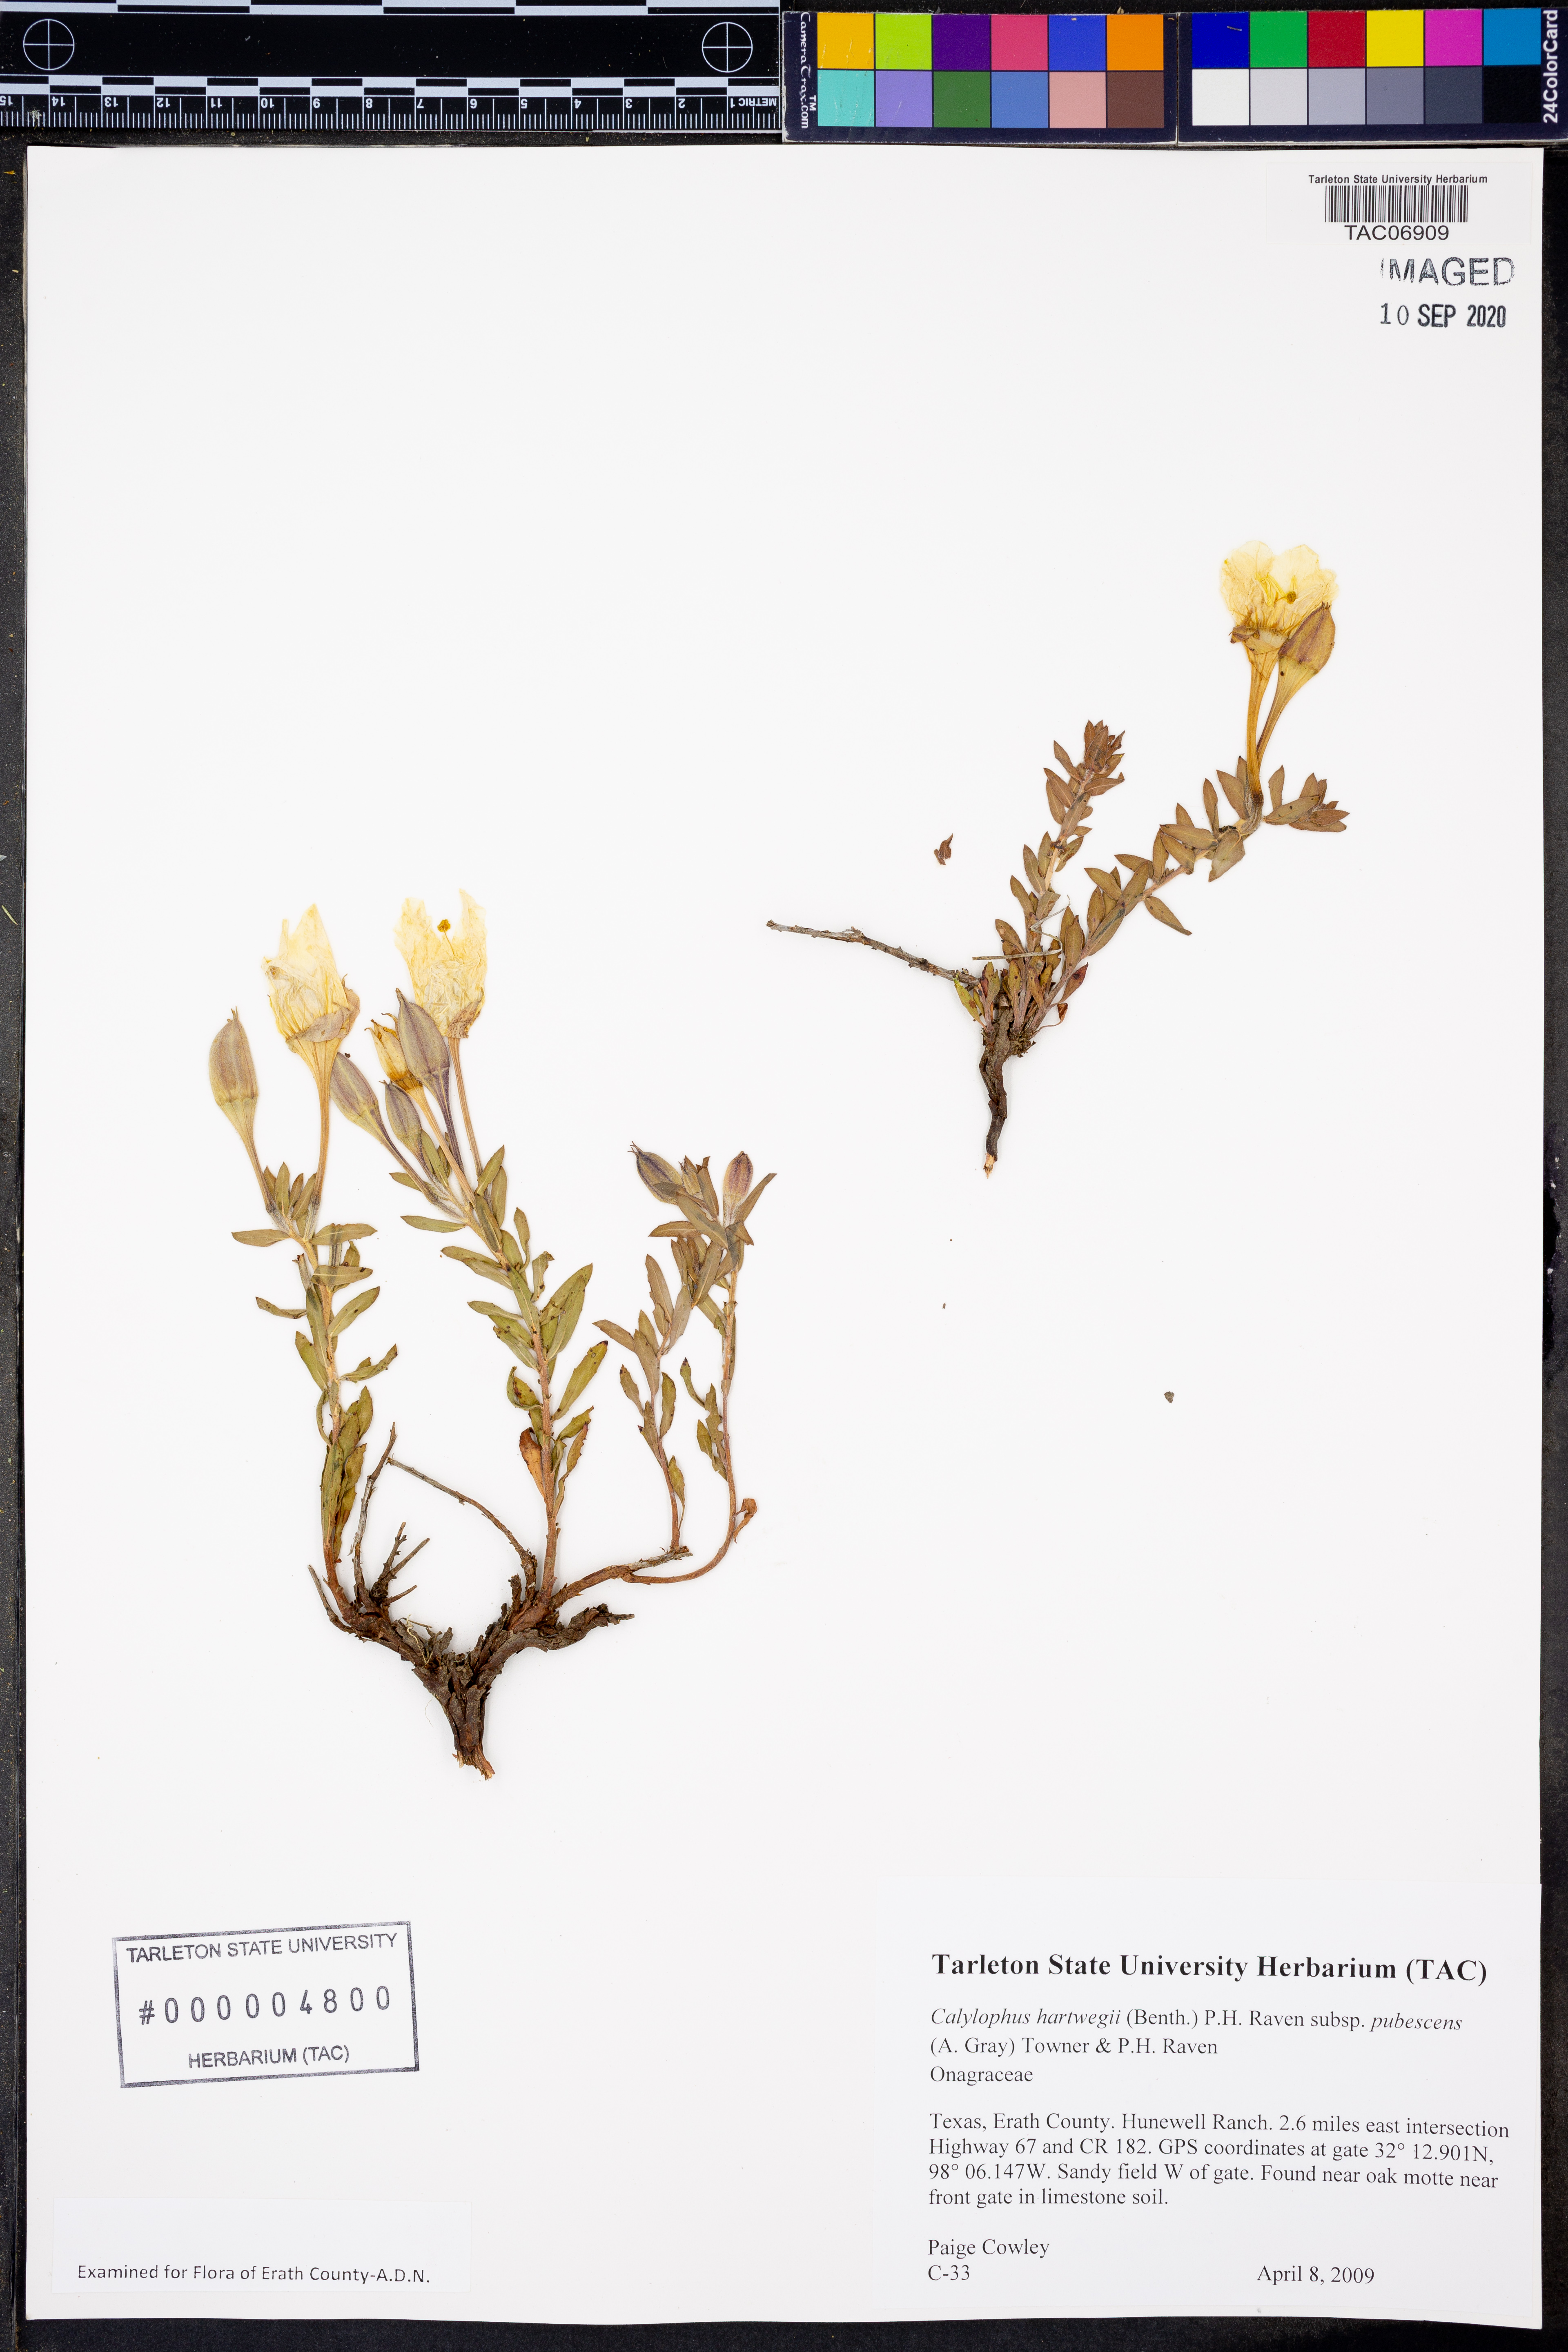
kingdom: Plantae
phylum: Tracheophyta
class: Magnoliopsida
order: Myrtales
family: Onagraceae
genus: Oenothera
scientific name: Oenothera hartwegii
